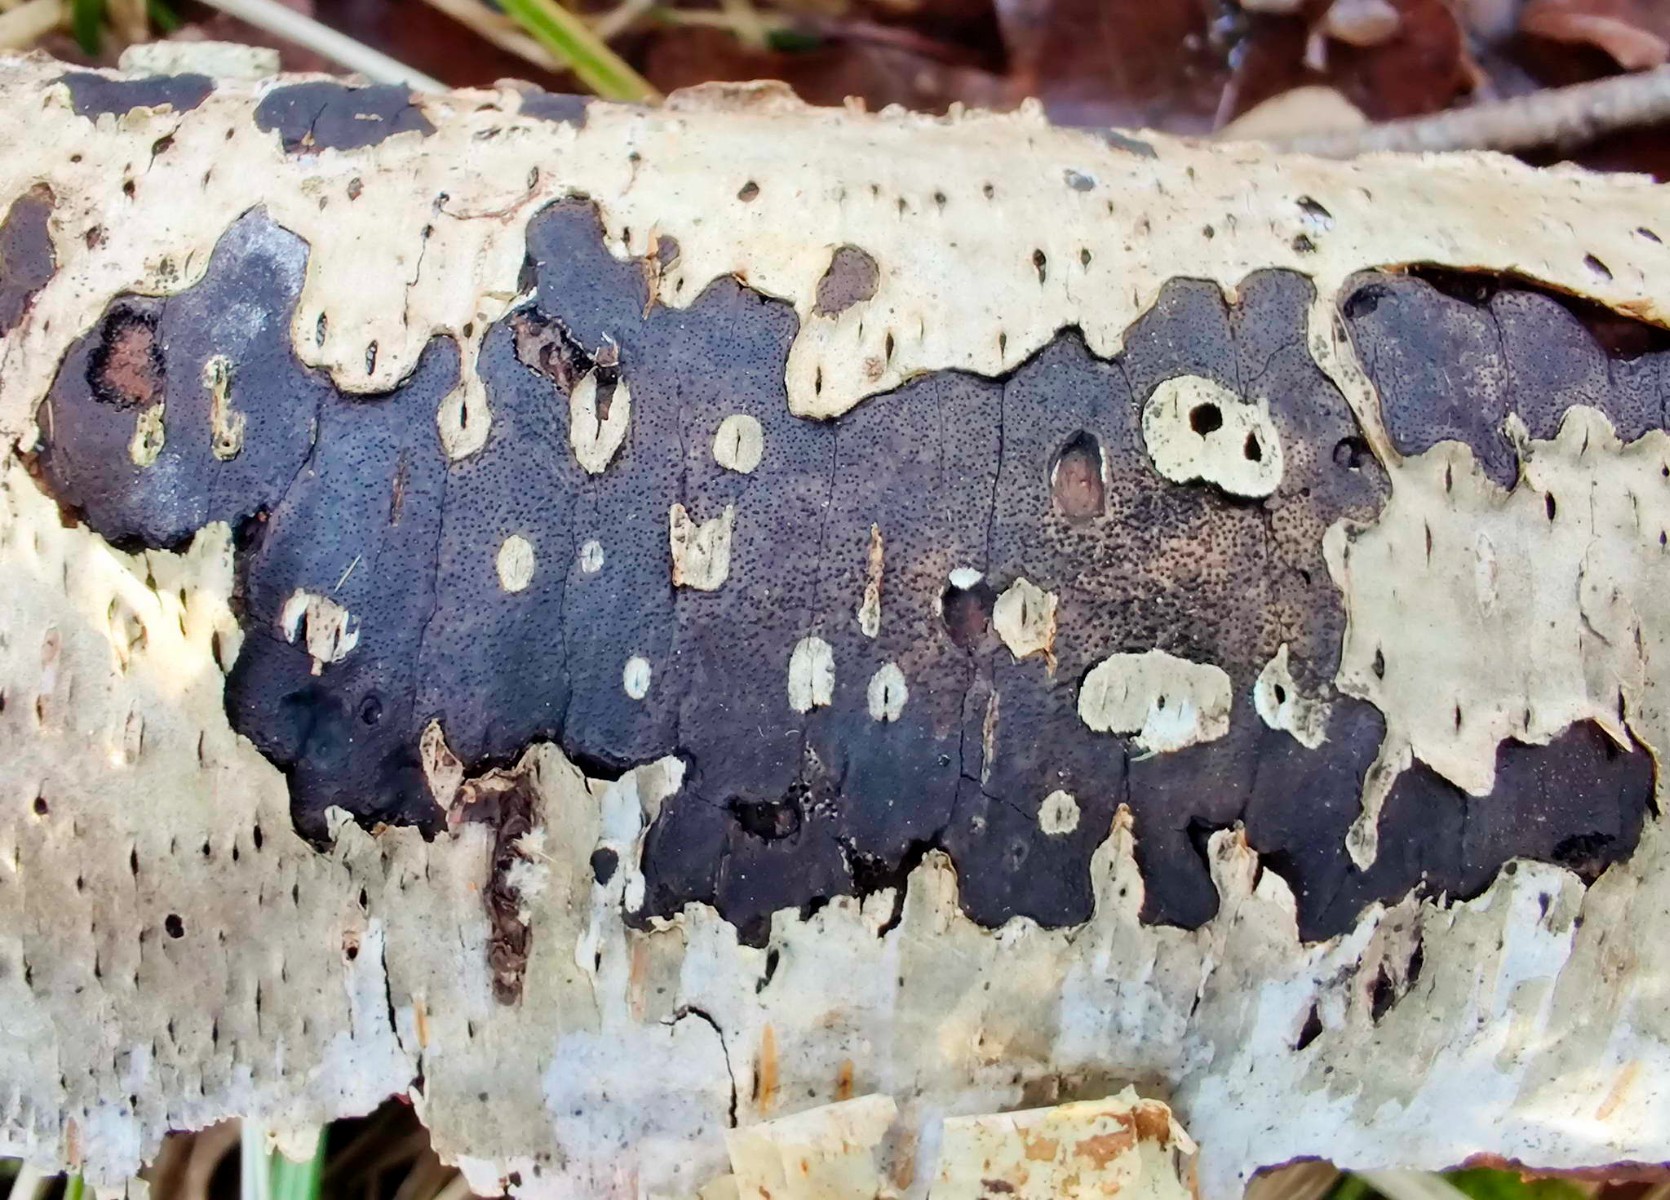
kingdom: Fungi
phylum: Ascomycota
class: Sordariomycetes
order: Xylariales
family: Diatrypaceae
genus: Diatrype
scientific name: Diatrype
